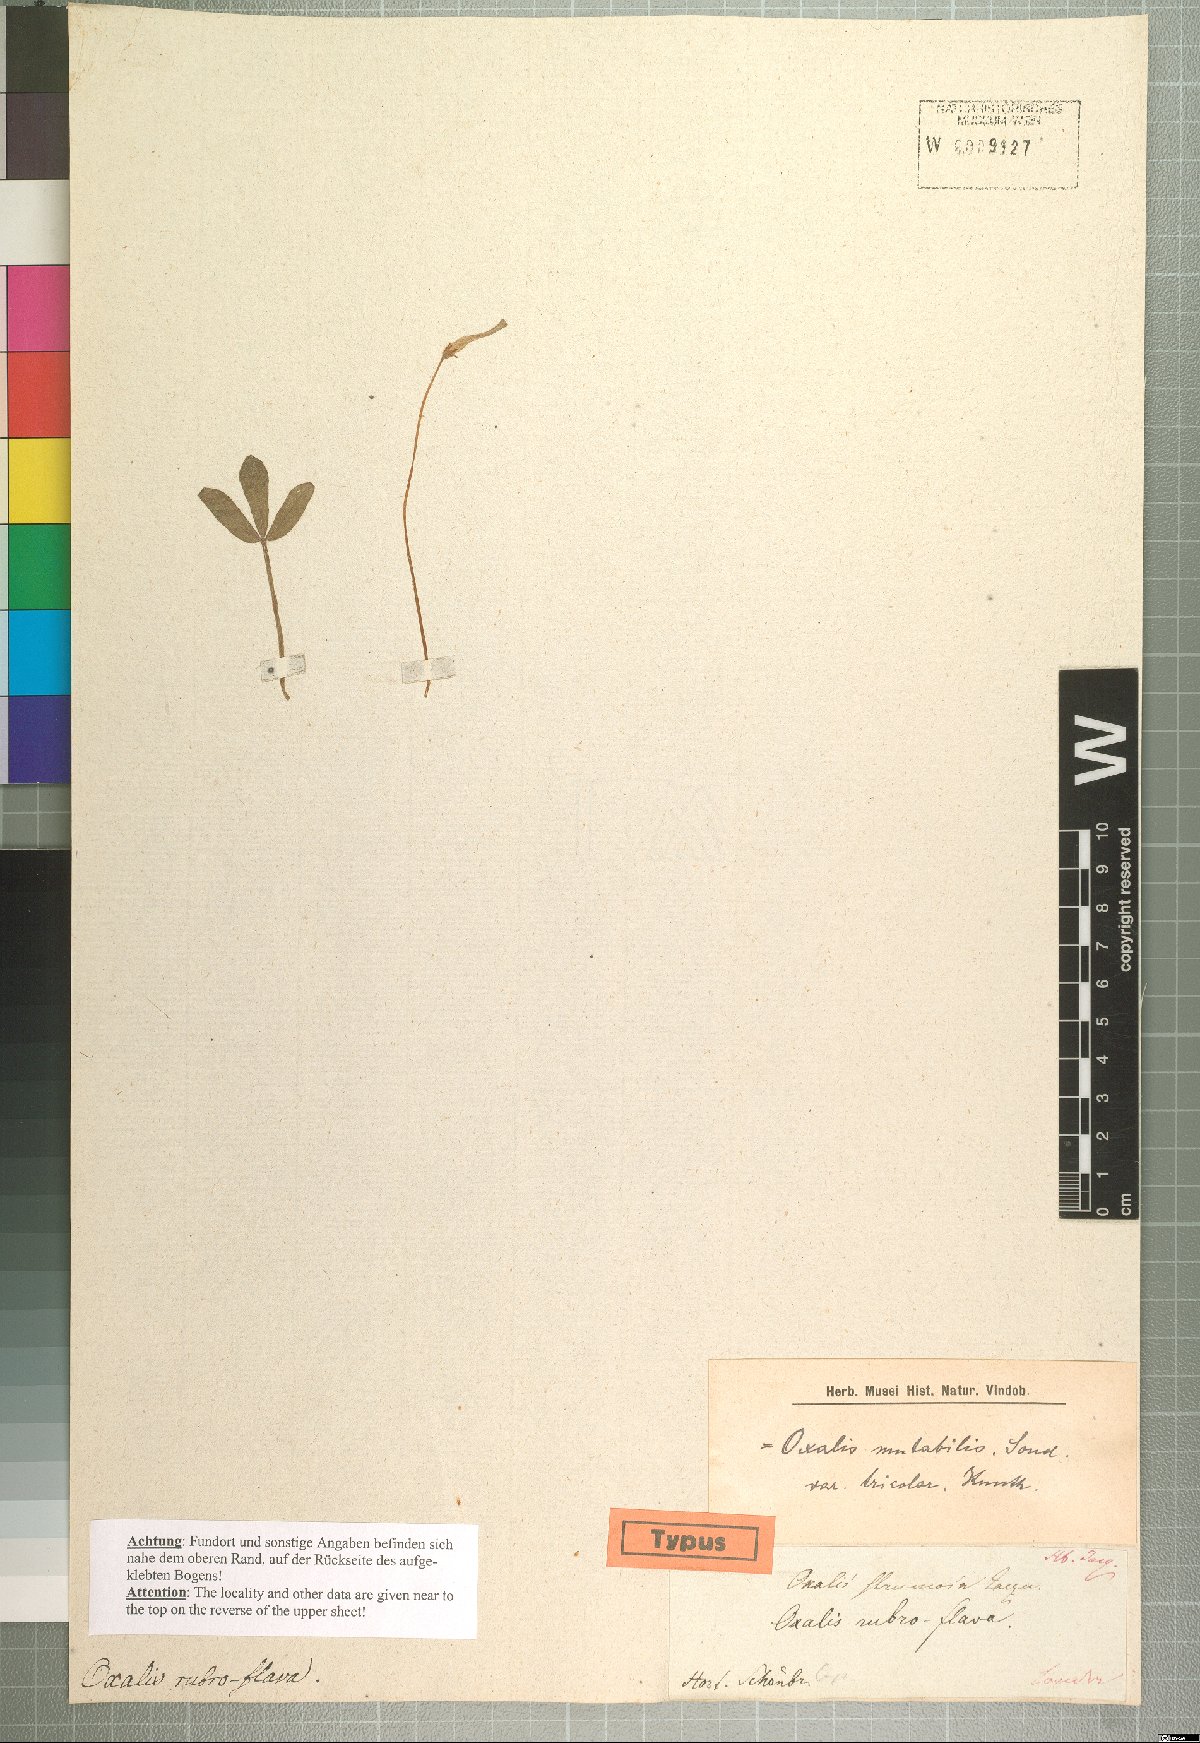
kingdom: Plantae
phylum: Tracheophyta
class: Magnoliopsida
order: Oxalidales
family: Oxalidaceae
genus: Oxalis
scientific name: Oxalis ambigua
